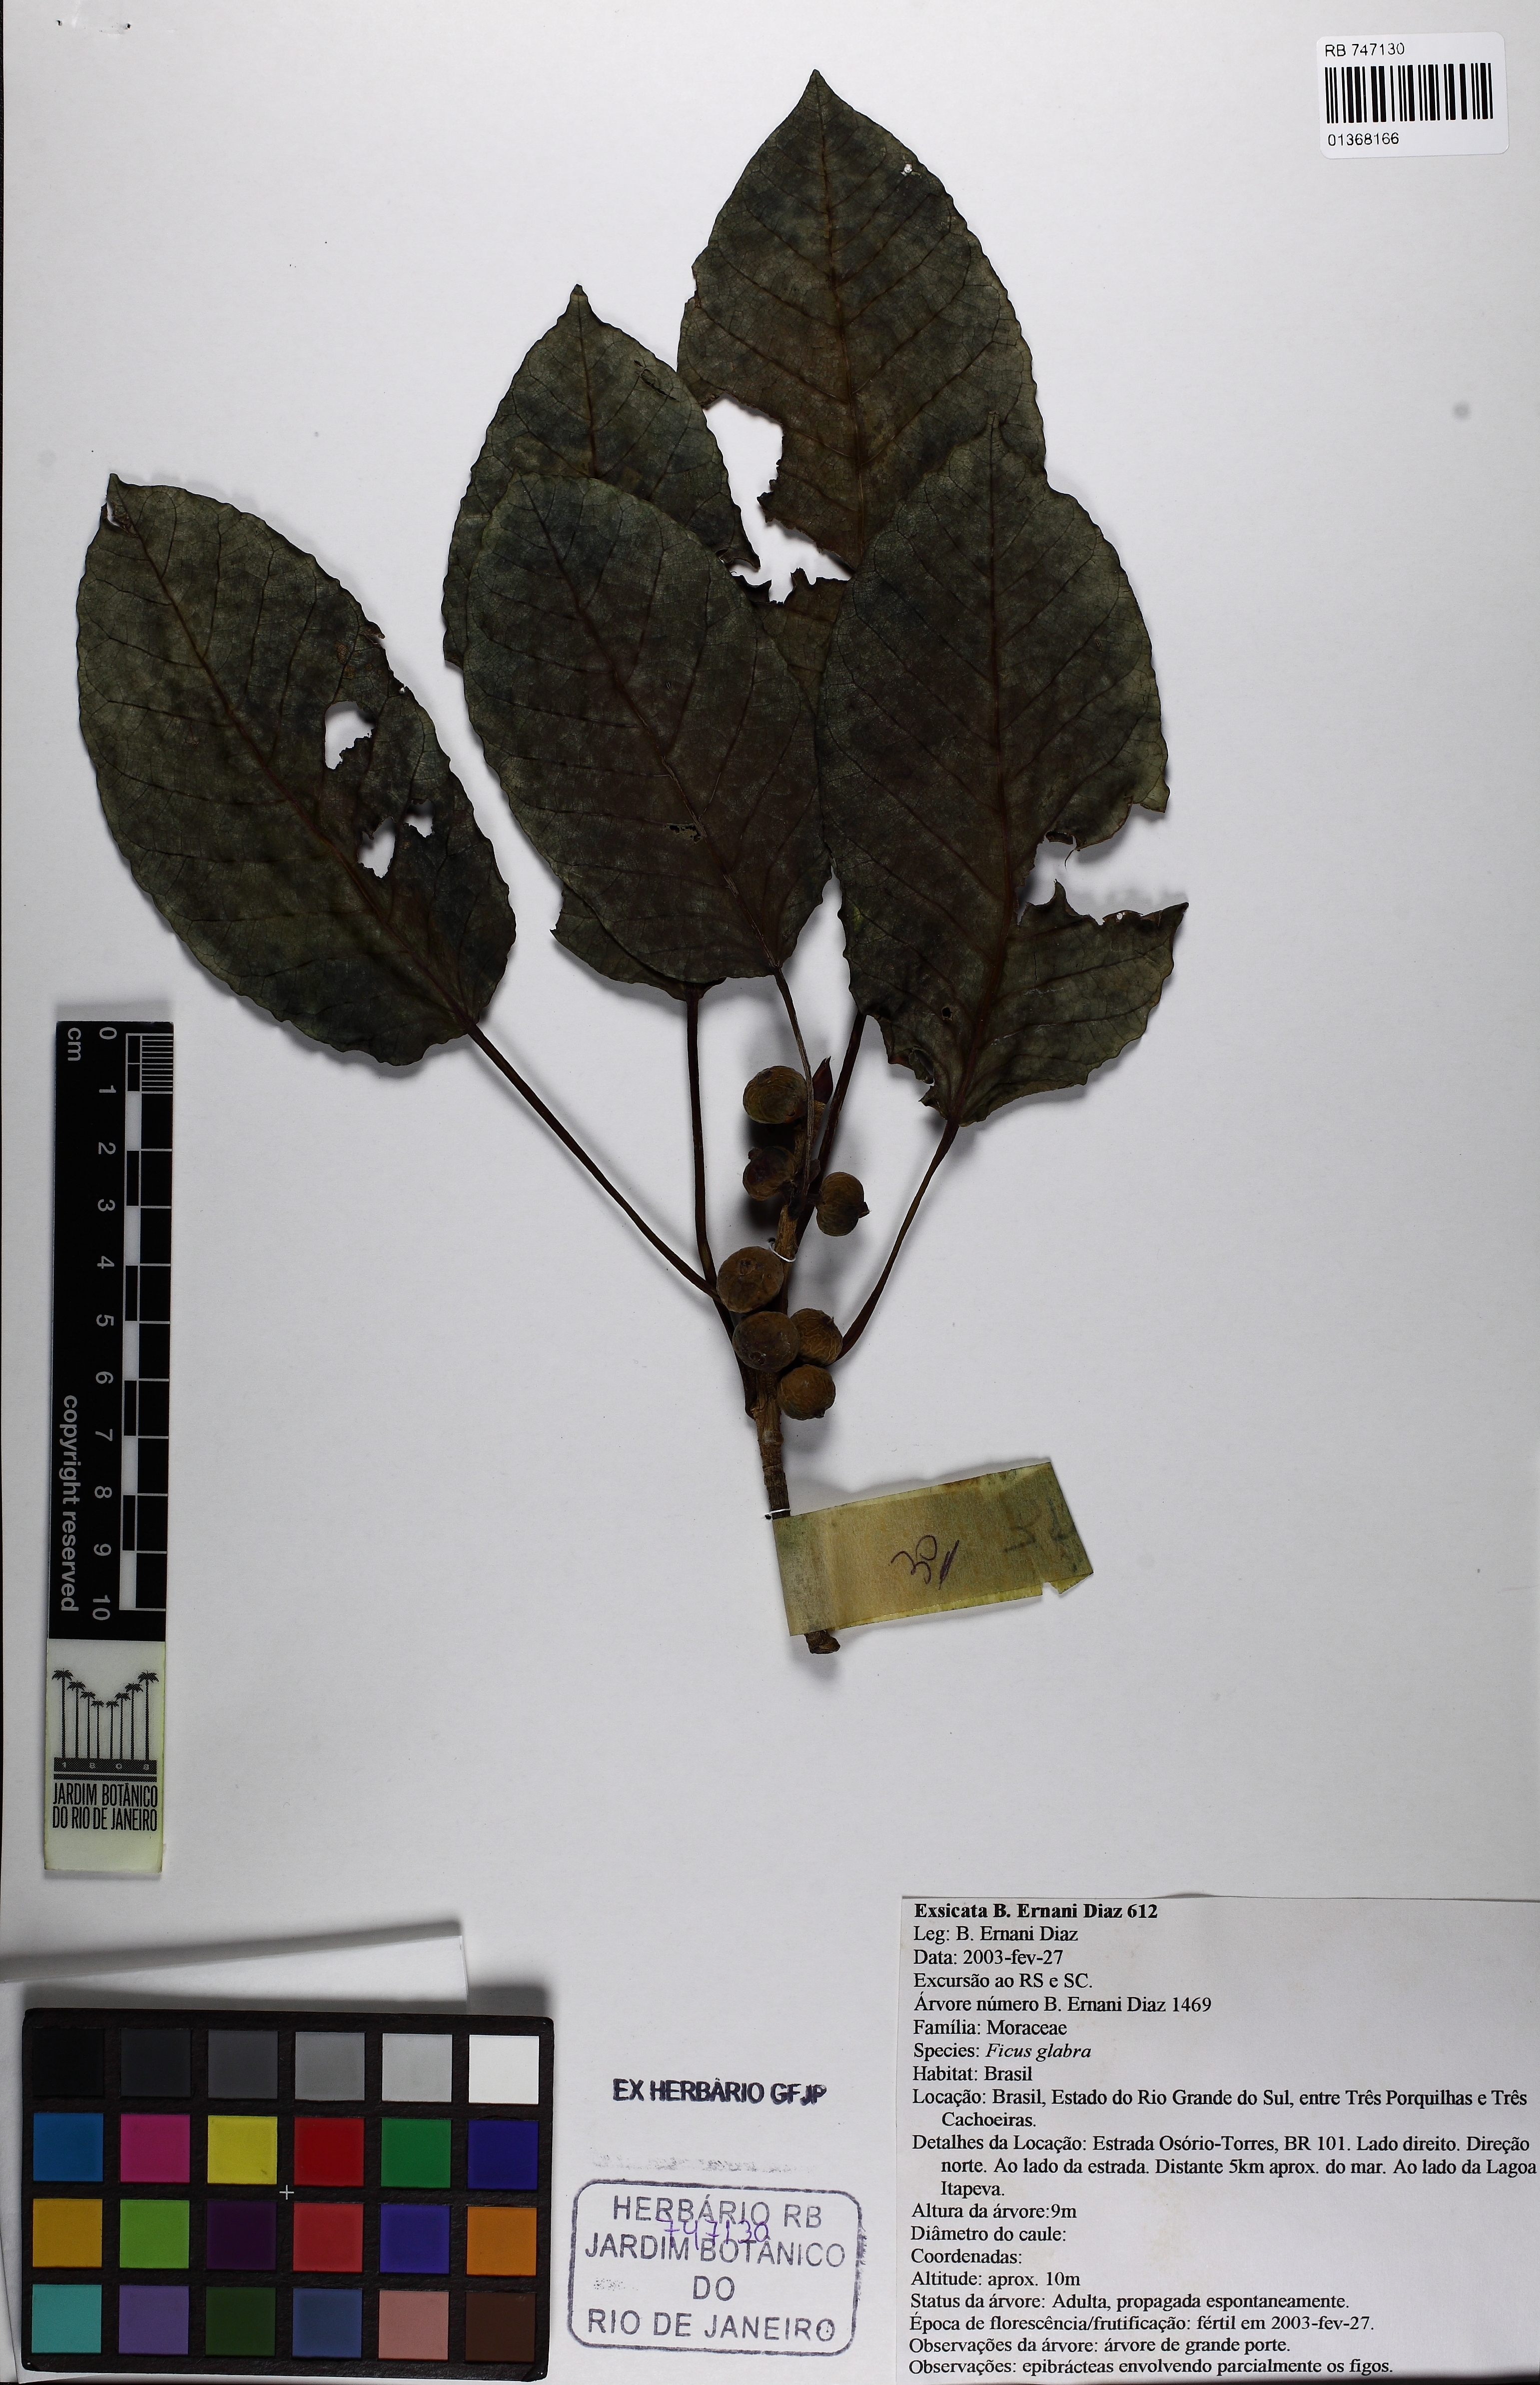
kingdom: Plantae
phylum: Tracheophyta
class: Magnoliopsida
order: Rosales
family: Moraceae
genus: Ficus
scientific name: Ficus eximia
